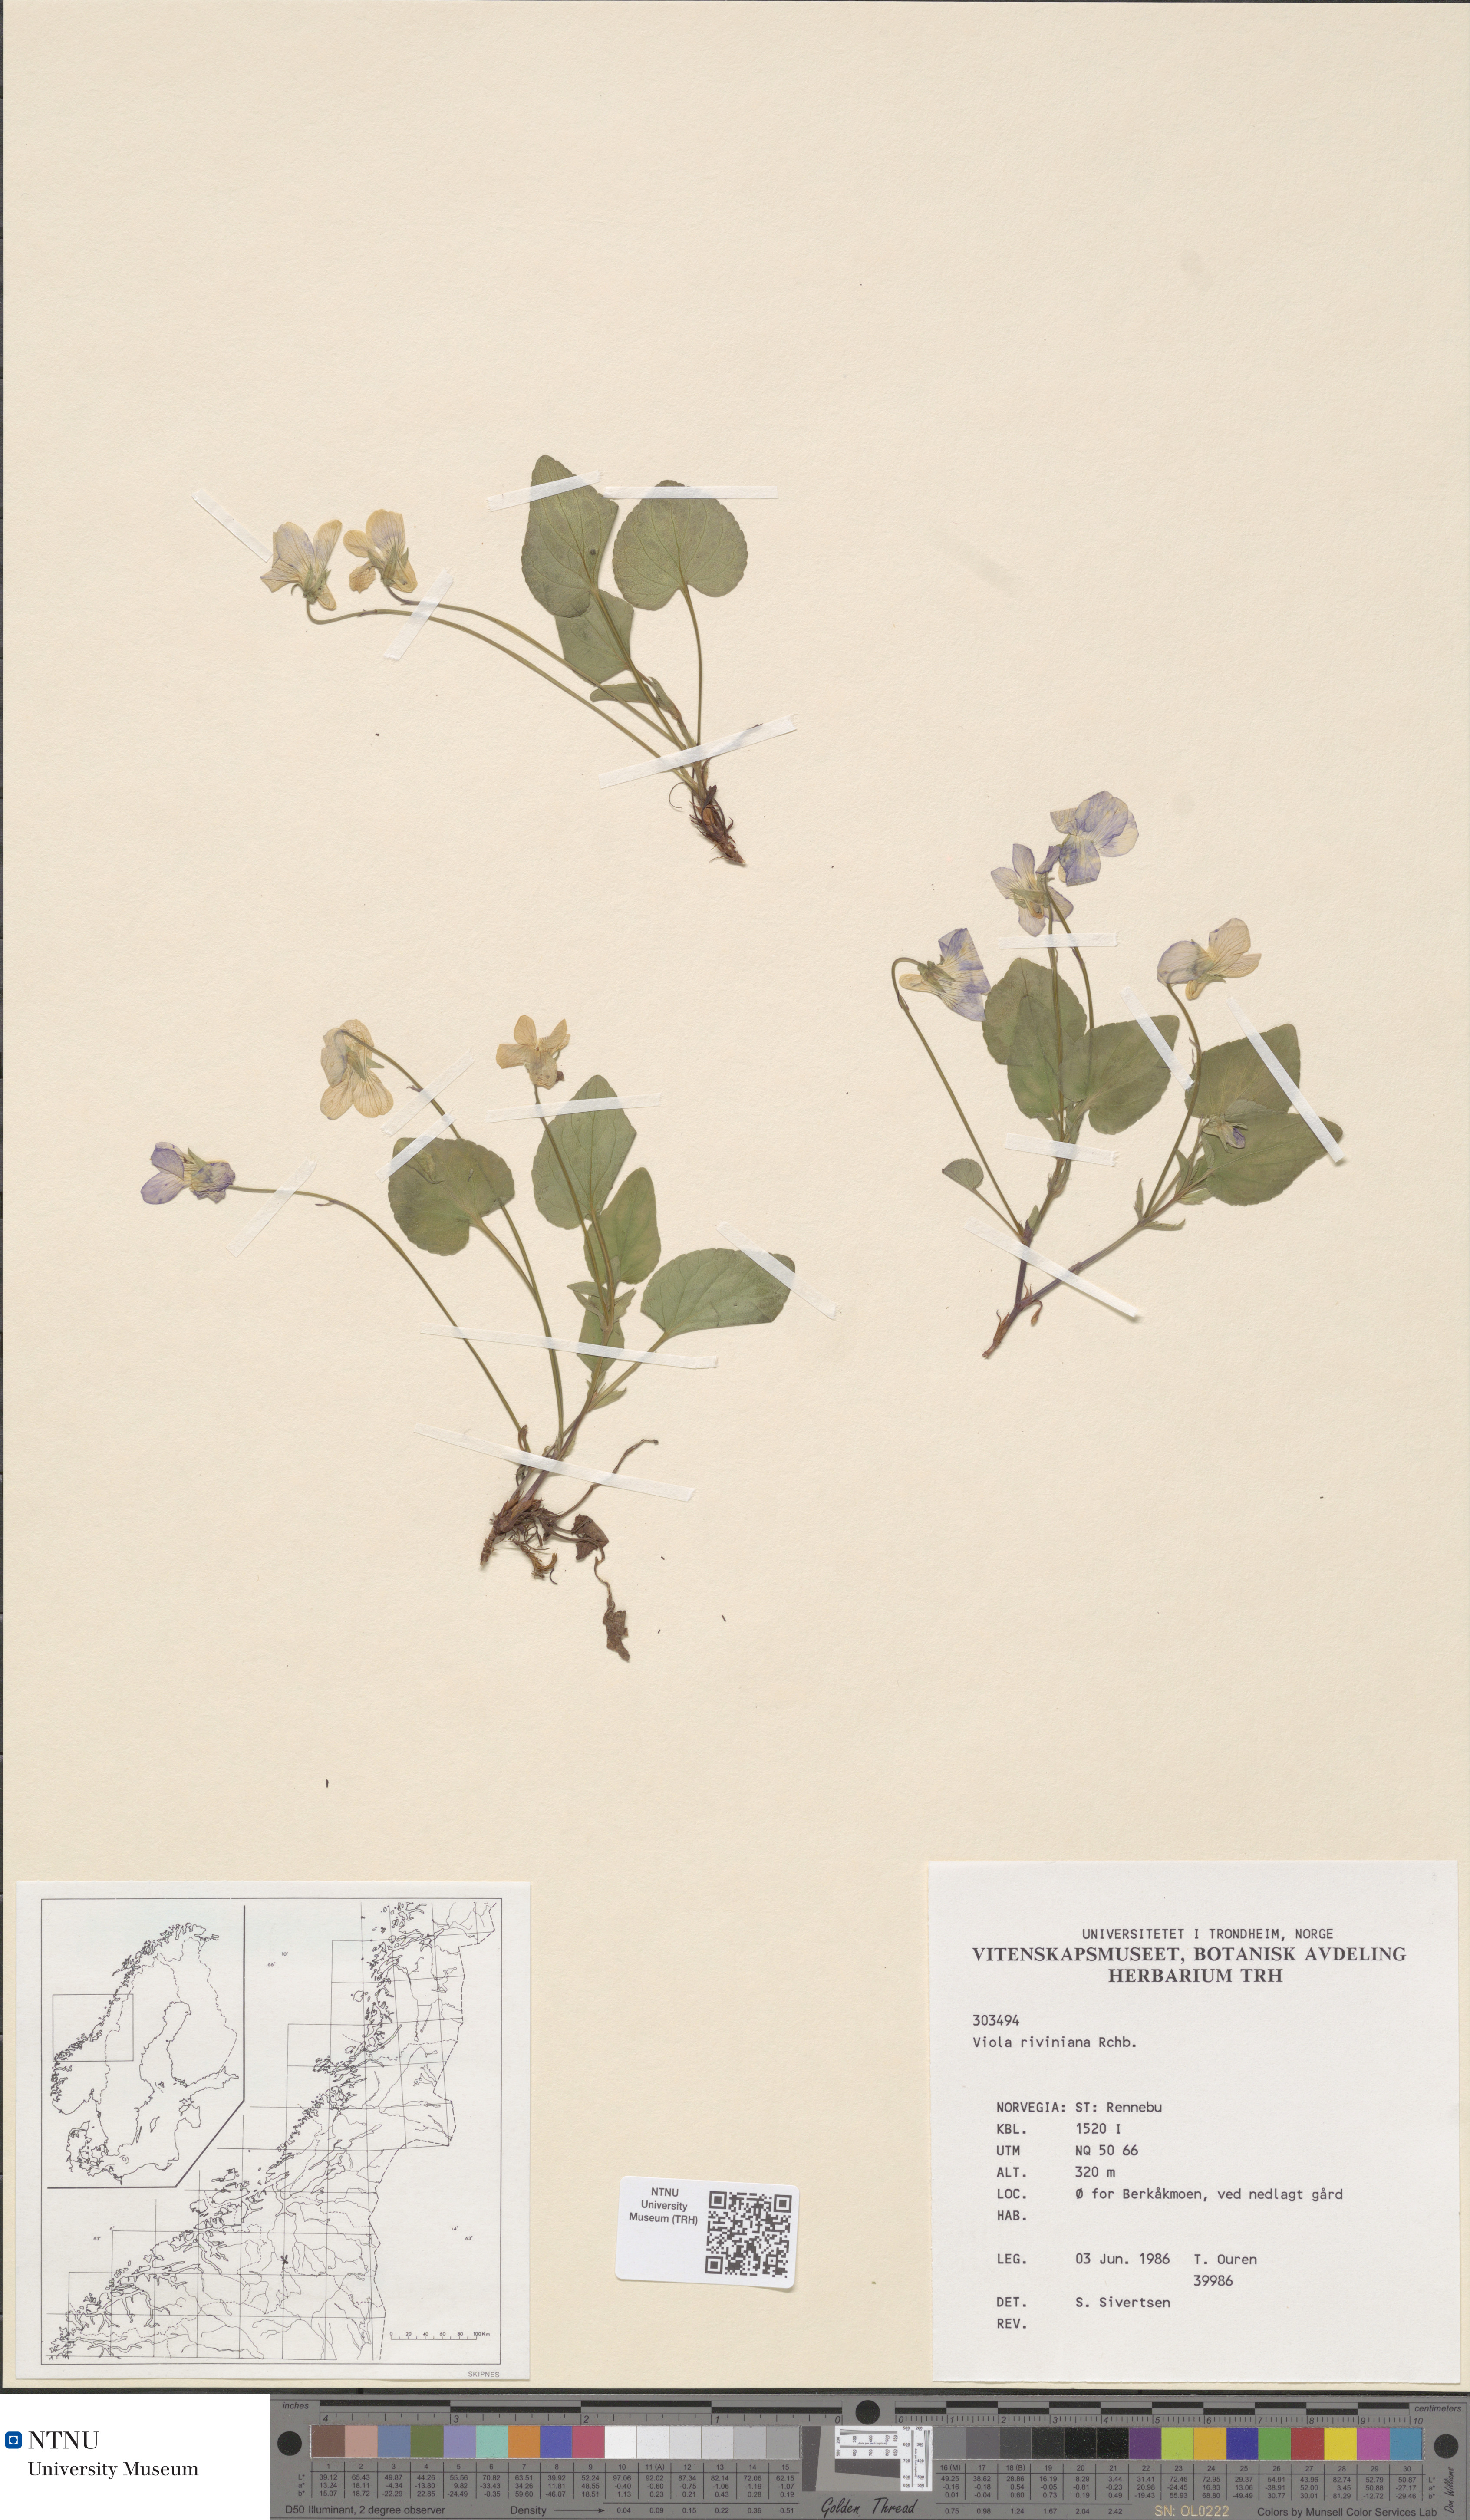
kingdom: Plantae
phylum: Tracheophyta
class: Magnoliopsida
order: Malpighiales
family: Violaceae
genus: Viola
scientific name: Viola riviniana
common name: Common dog-violet
